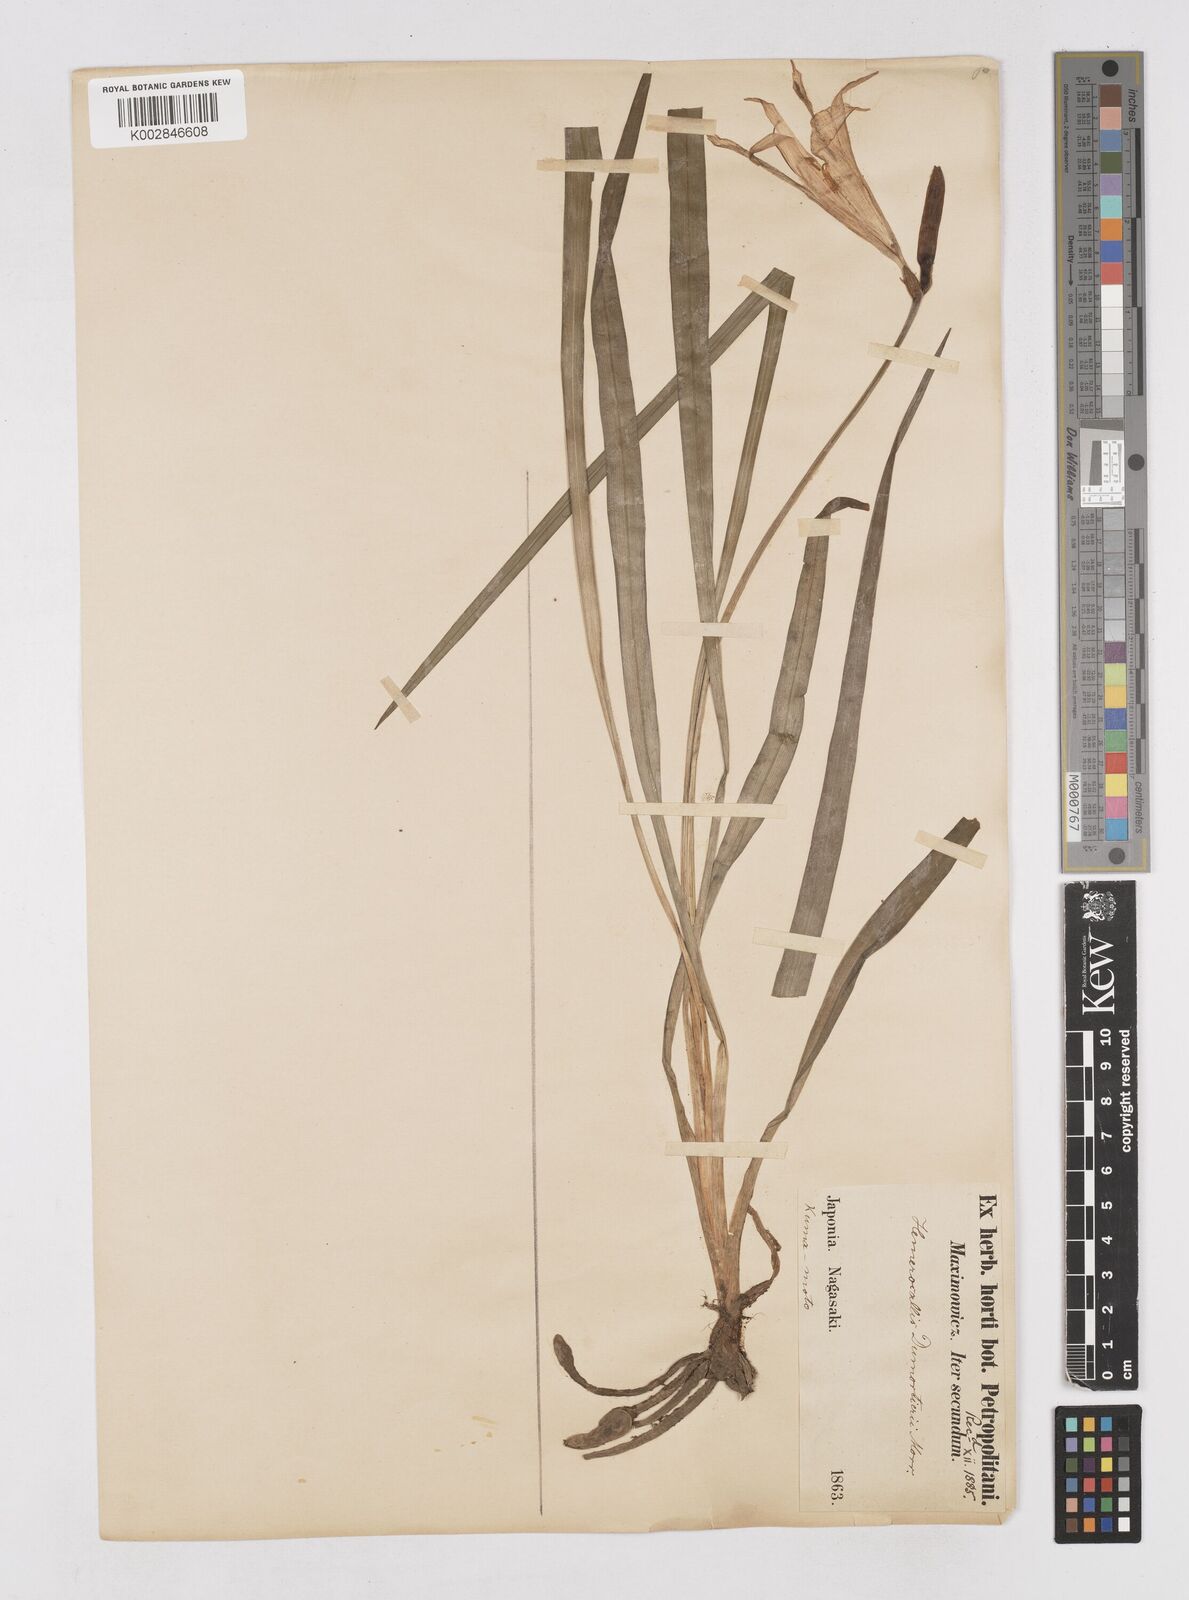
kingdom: Plantae
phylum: Tracheophyta
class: Liliopsida
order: Asparagales
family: Asphodelaceae
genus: Hemerocallis
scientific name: Hemerocallis dumortieri
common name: Dumortier's day-lily
